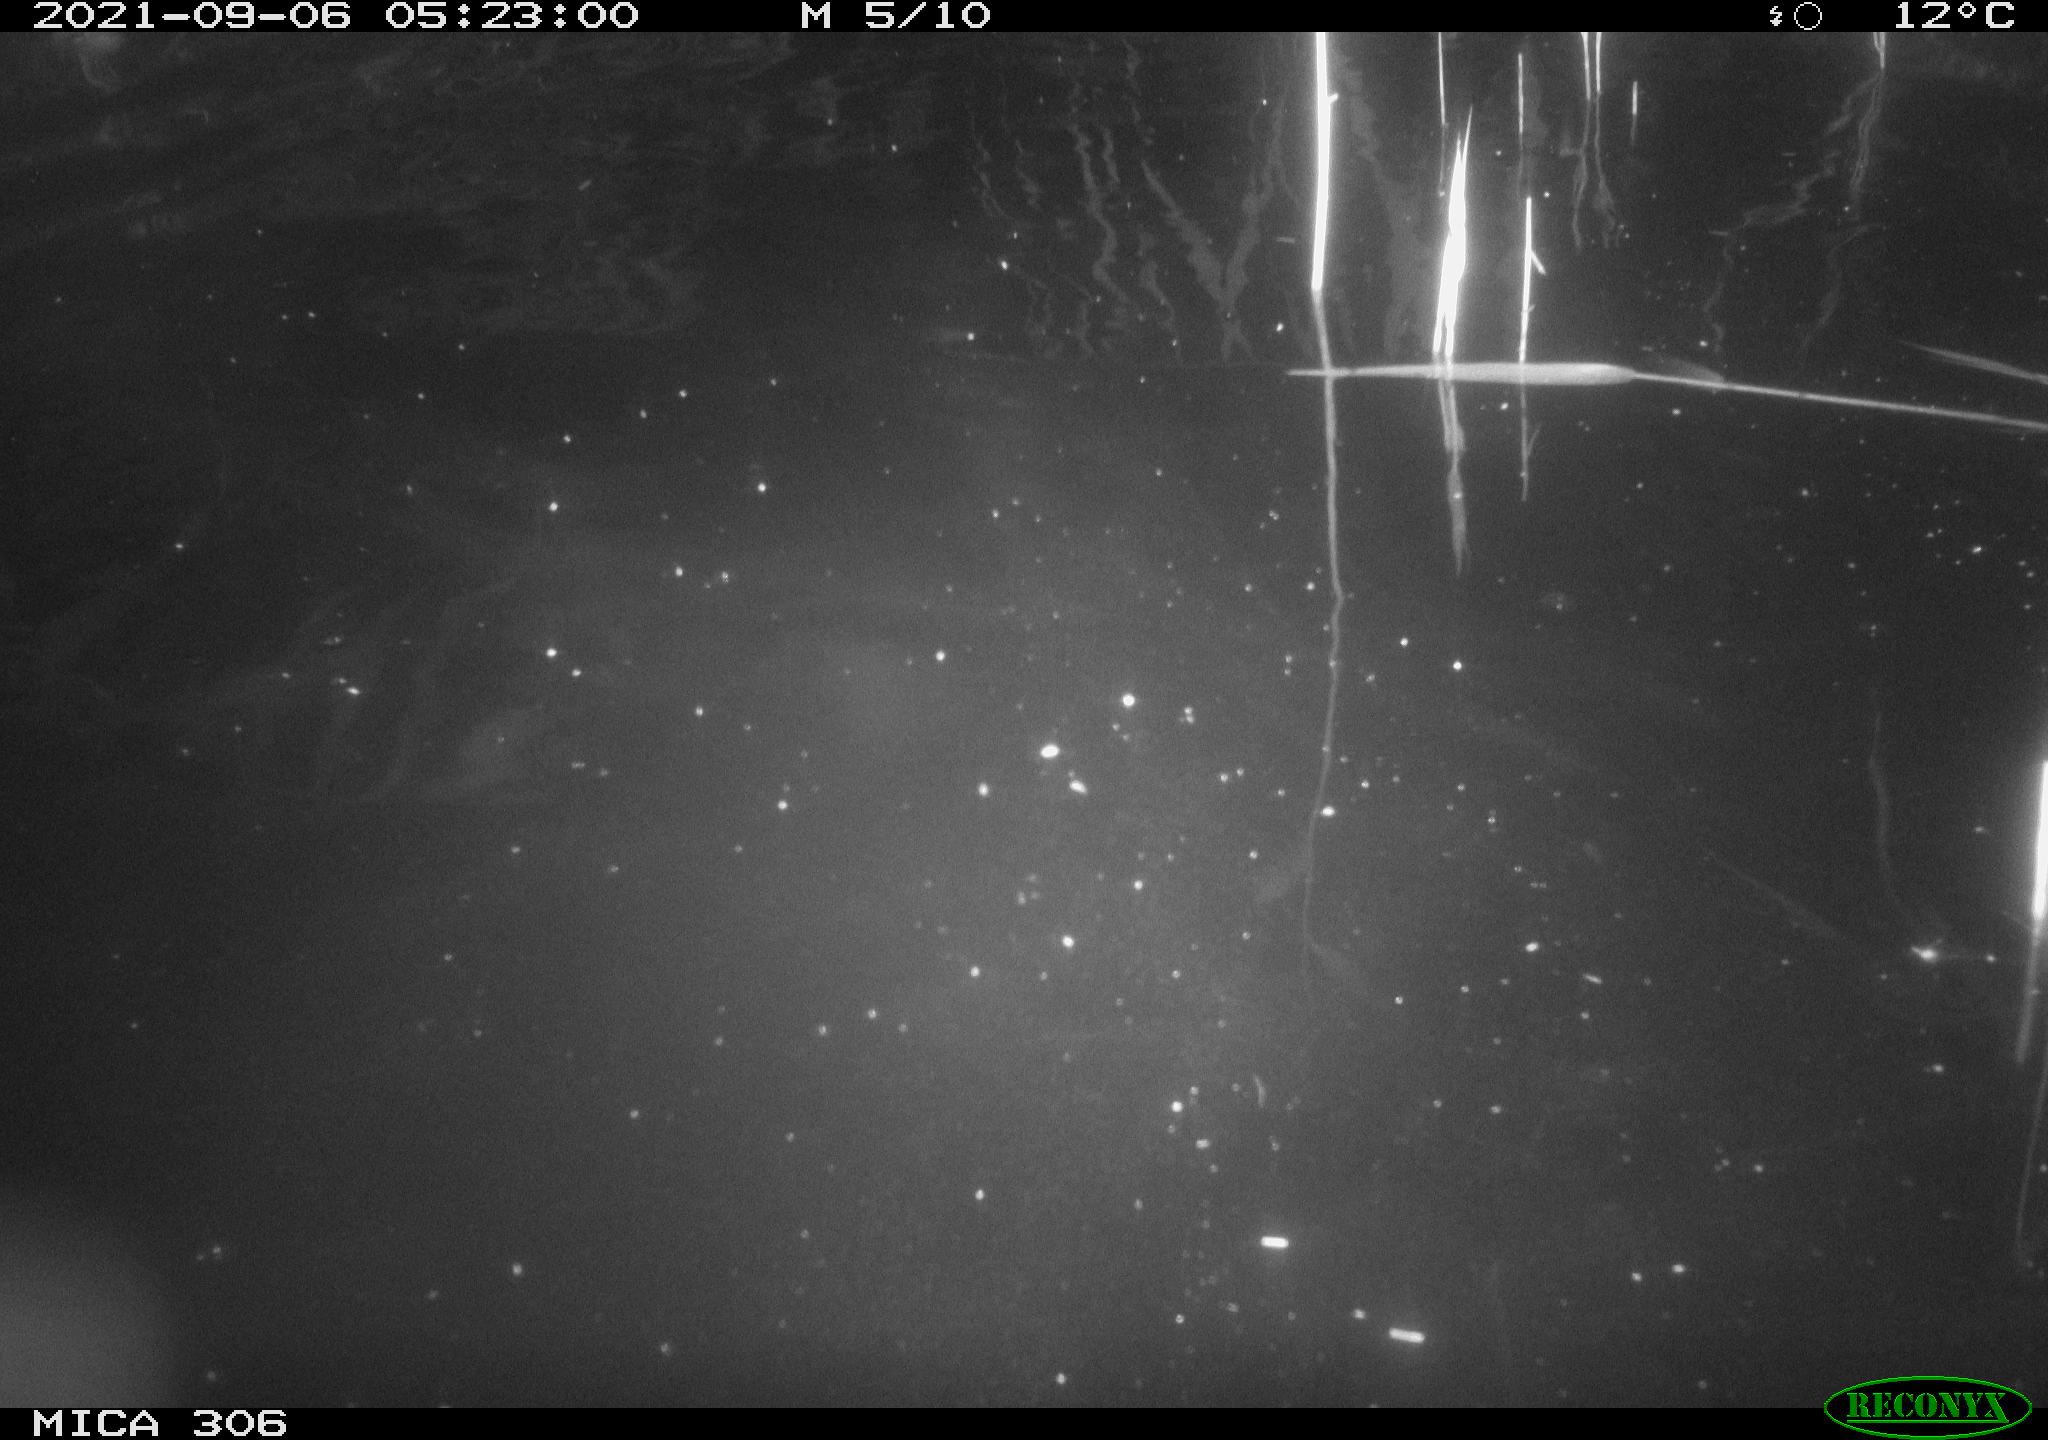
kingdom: Animalia
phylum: Chordata
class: Mammalia
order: Rodentia
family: Cricetidae
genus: Ondatra
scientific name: Ondatra zibethicus
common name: Muskrat
